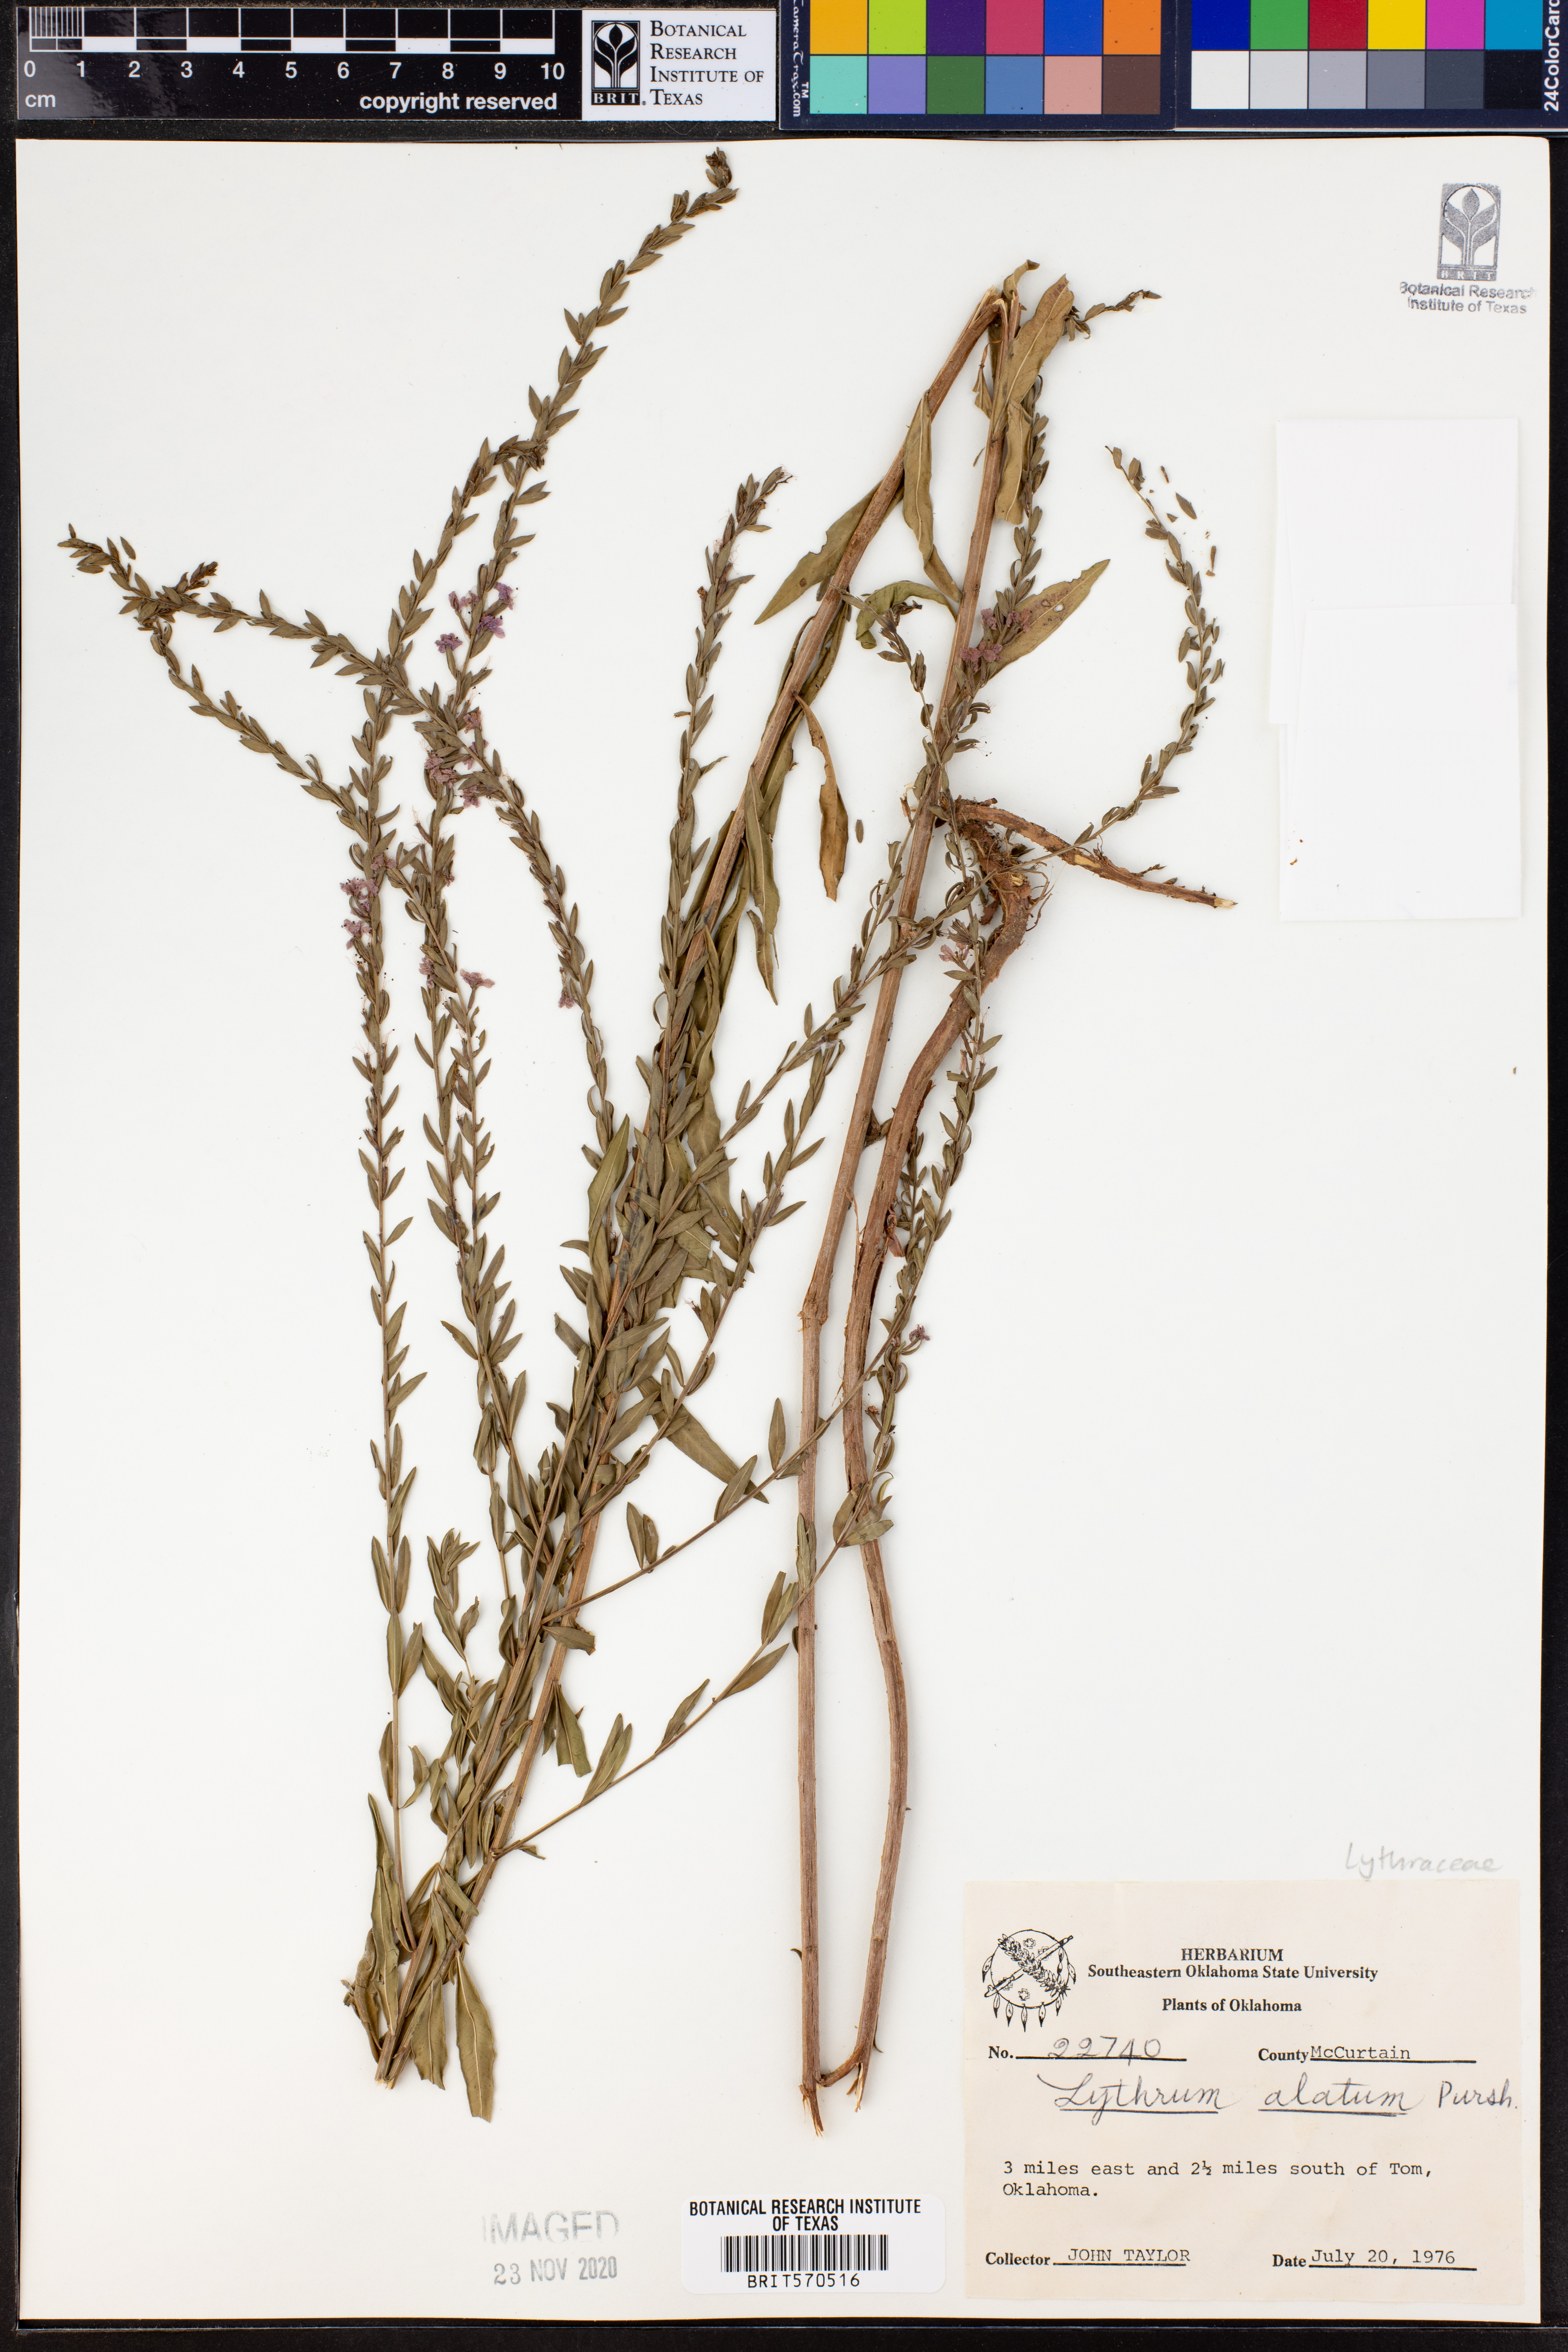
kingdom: Plantae
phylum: Tracheophyta
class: Magnoliopsida
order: Myrtales
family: Lythraceae
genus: Lythrum
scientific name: Lythrum alatum
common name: Winged loosestrife
